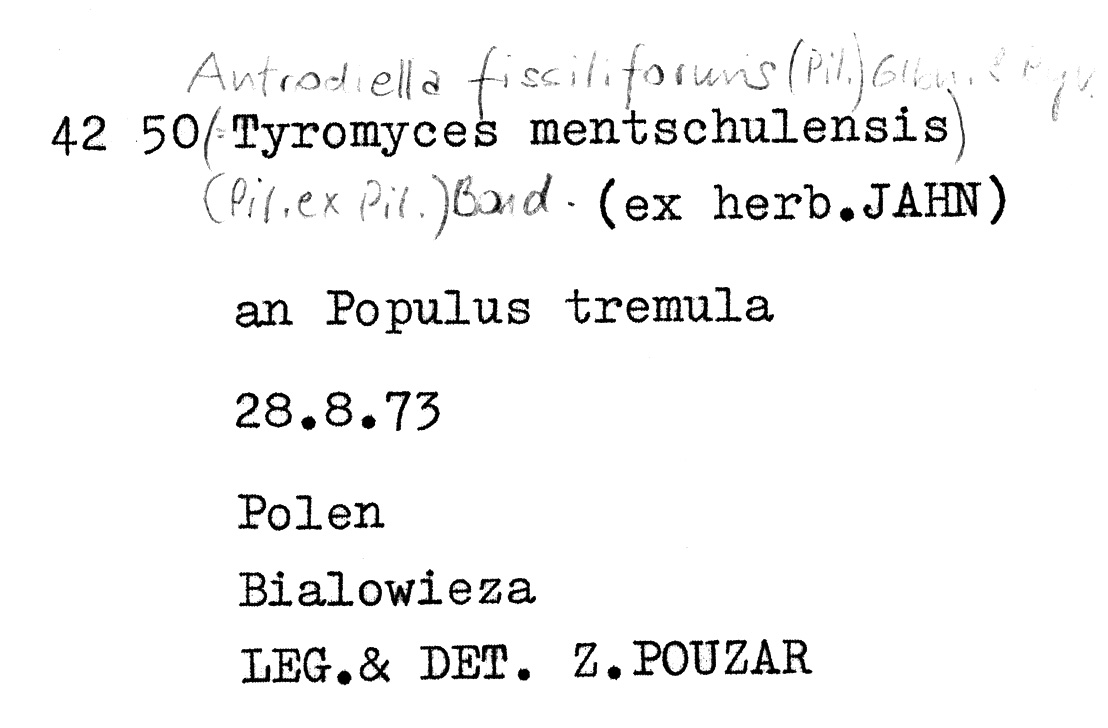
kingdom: Plantae
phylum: Tracheophyta
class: Magnoliopsida
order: Malpighiales
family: Salicaceae
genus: Populus
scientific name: Populus tremula
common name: European aspen
